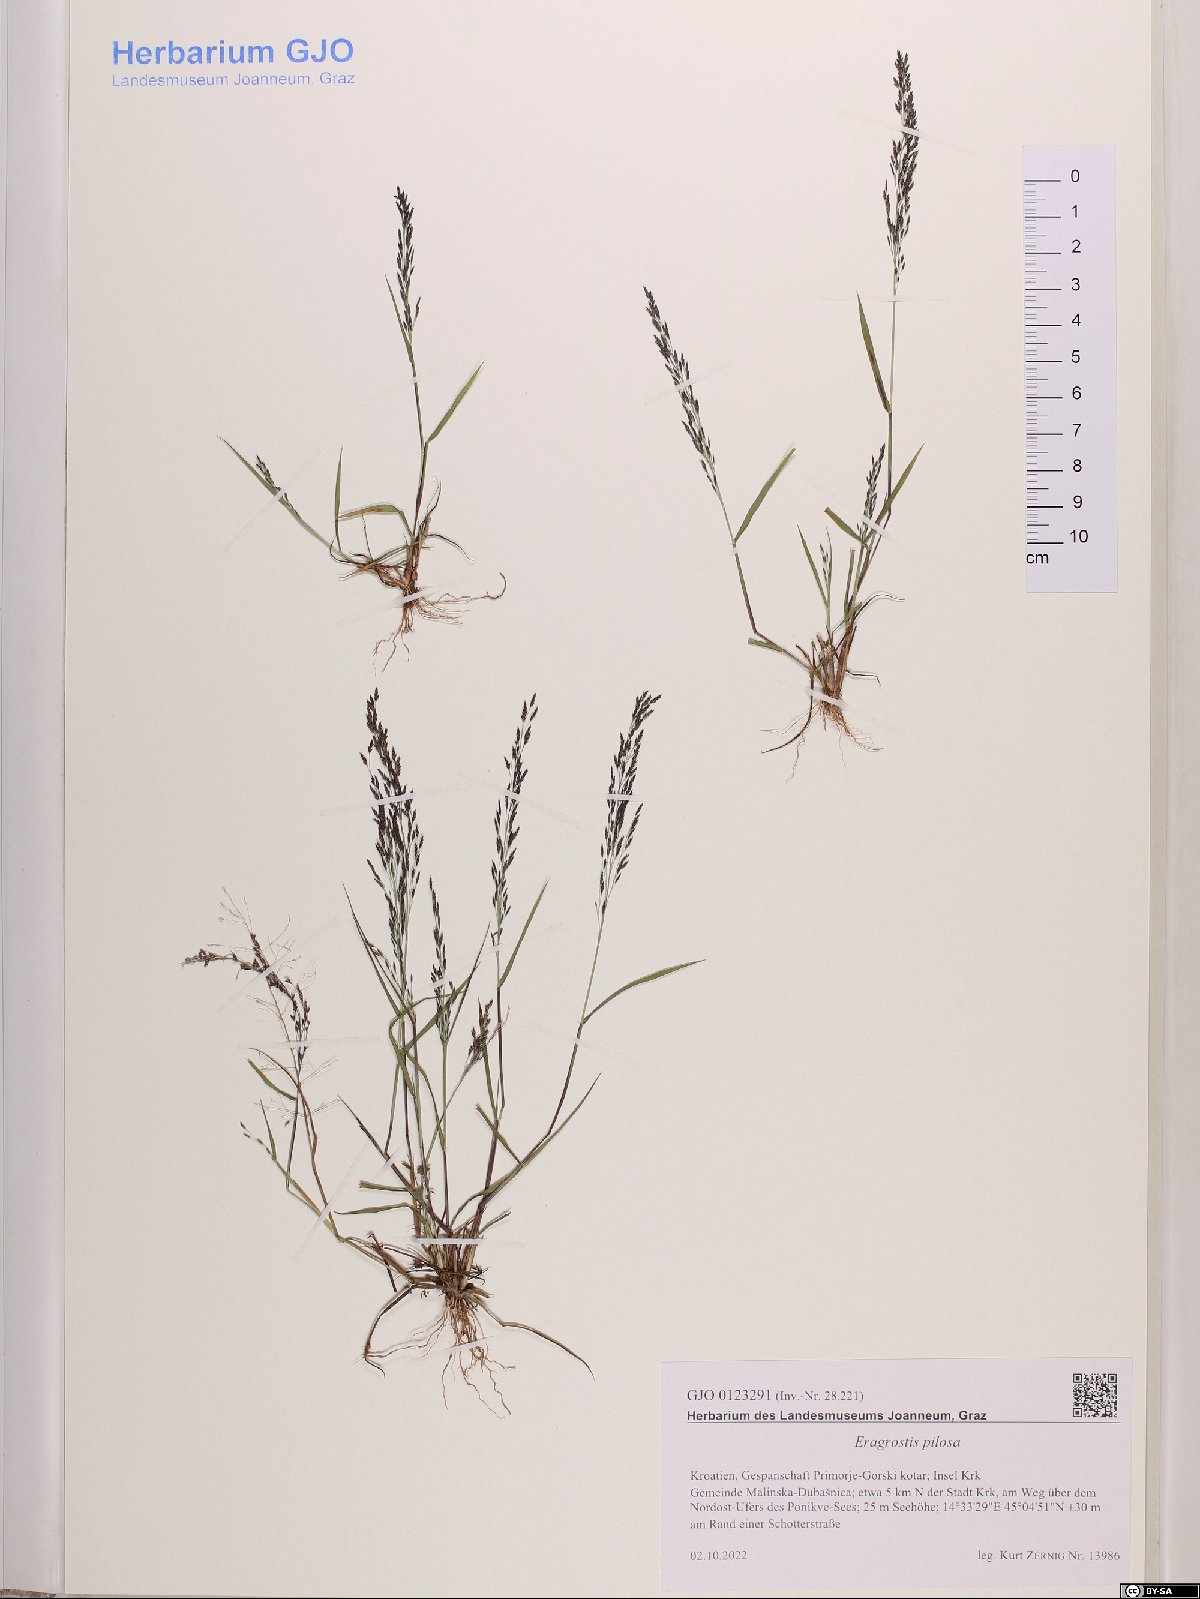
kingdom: Plantae
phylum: Tracheophyta
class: Liliopsida
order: Poales
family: Poaceae
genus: Eragrostis
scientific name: Eragrostis pilosa
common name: Indian lovegrass
